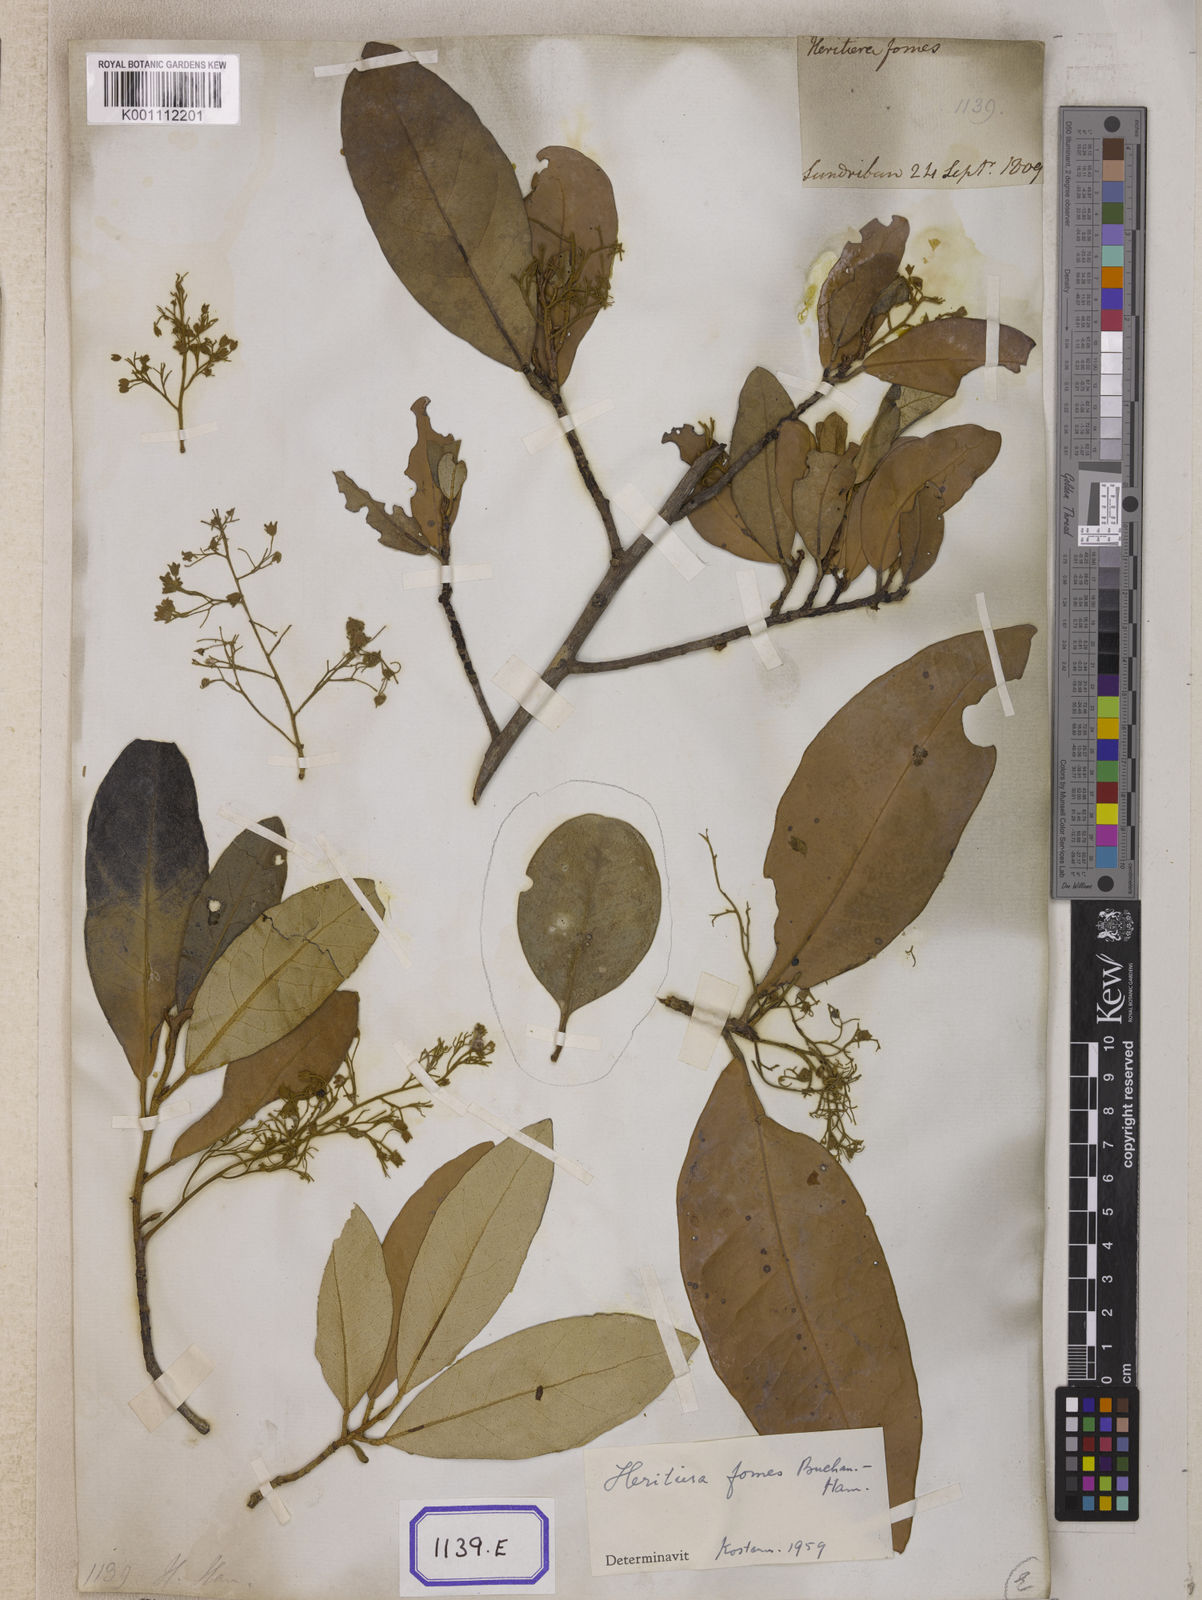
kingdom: Plantae
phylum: Tracheophyta
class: Magnoliopsida
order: Malvales
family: Malvaceae
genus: Heritiera
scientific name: Heritiera
